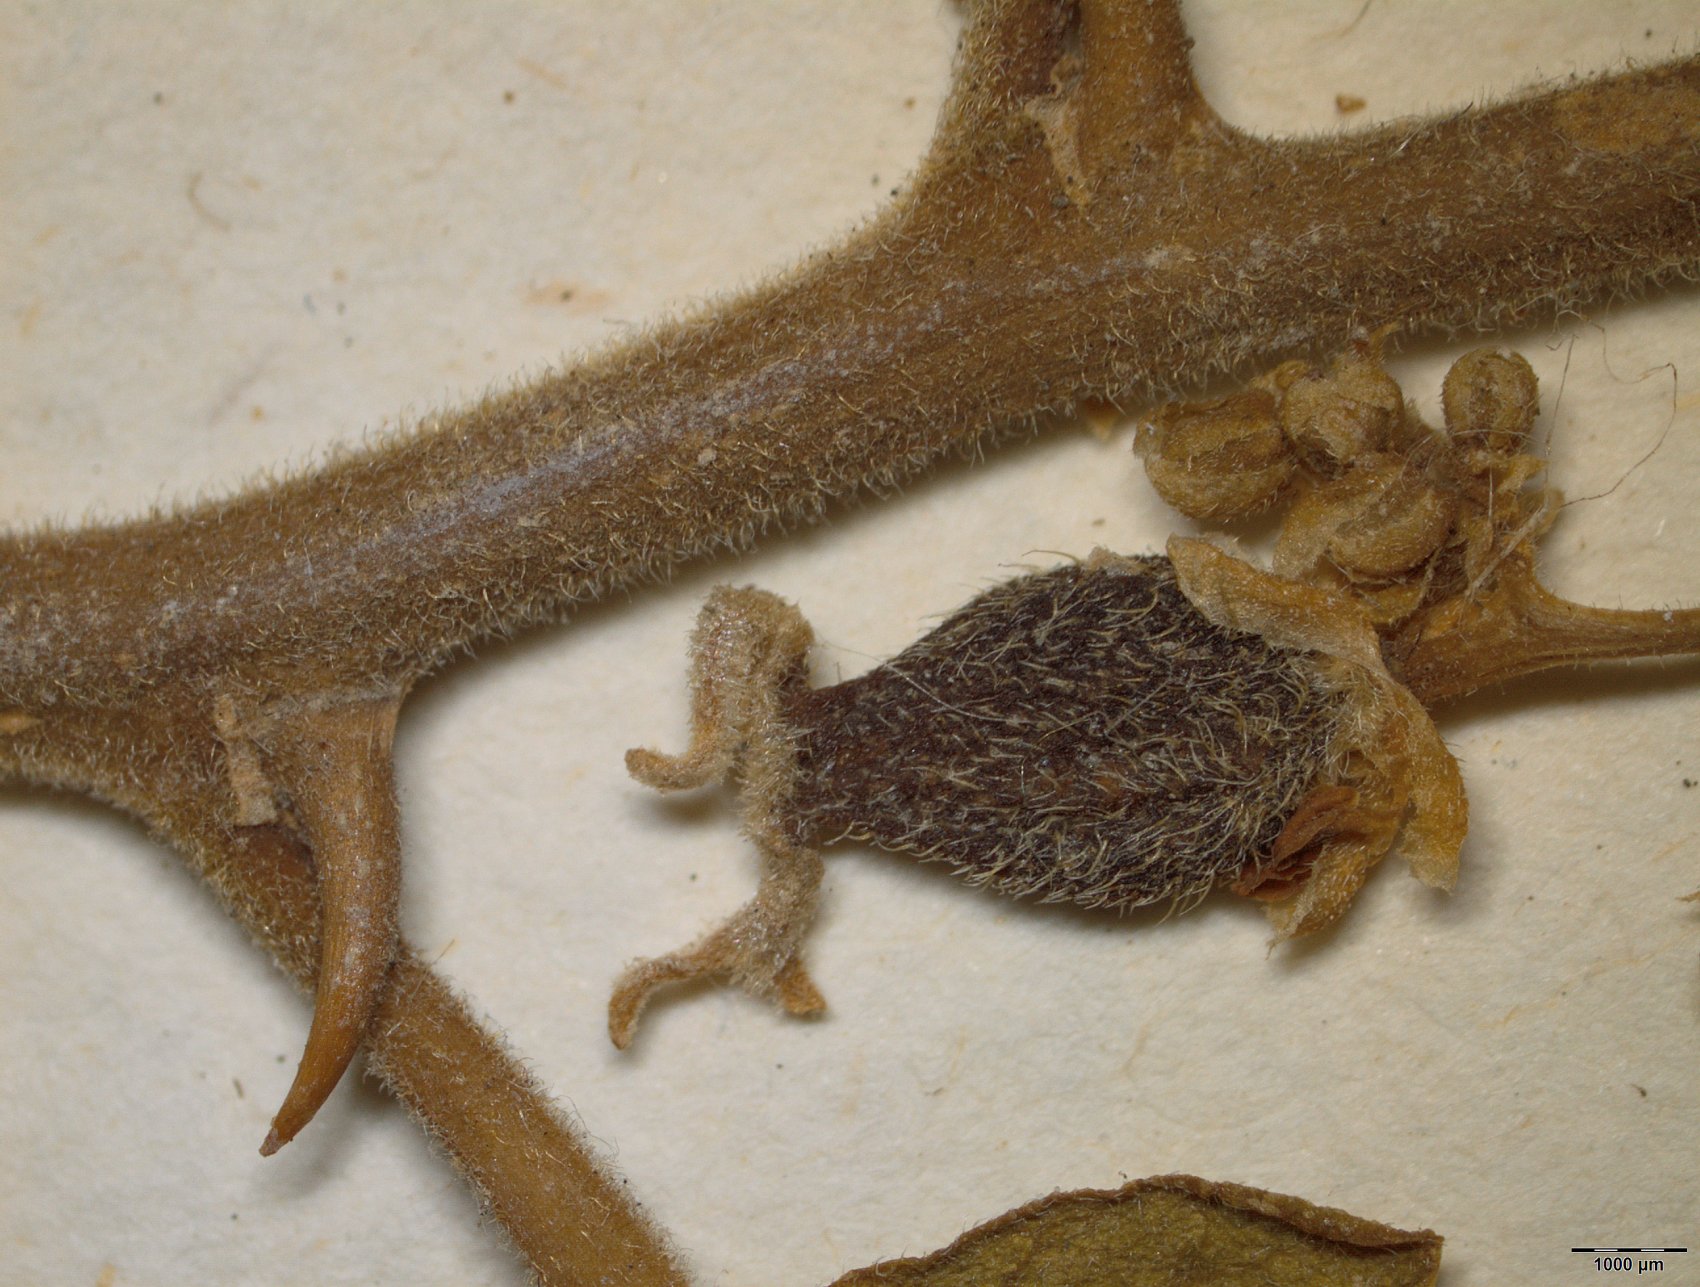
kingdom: Plantae
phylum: Tracheophyta
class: Magnoliopsida
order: Rosales
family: Cannabaceae
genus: Celtis
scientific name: Celtis iguanaea
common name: Iguana hackberry
